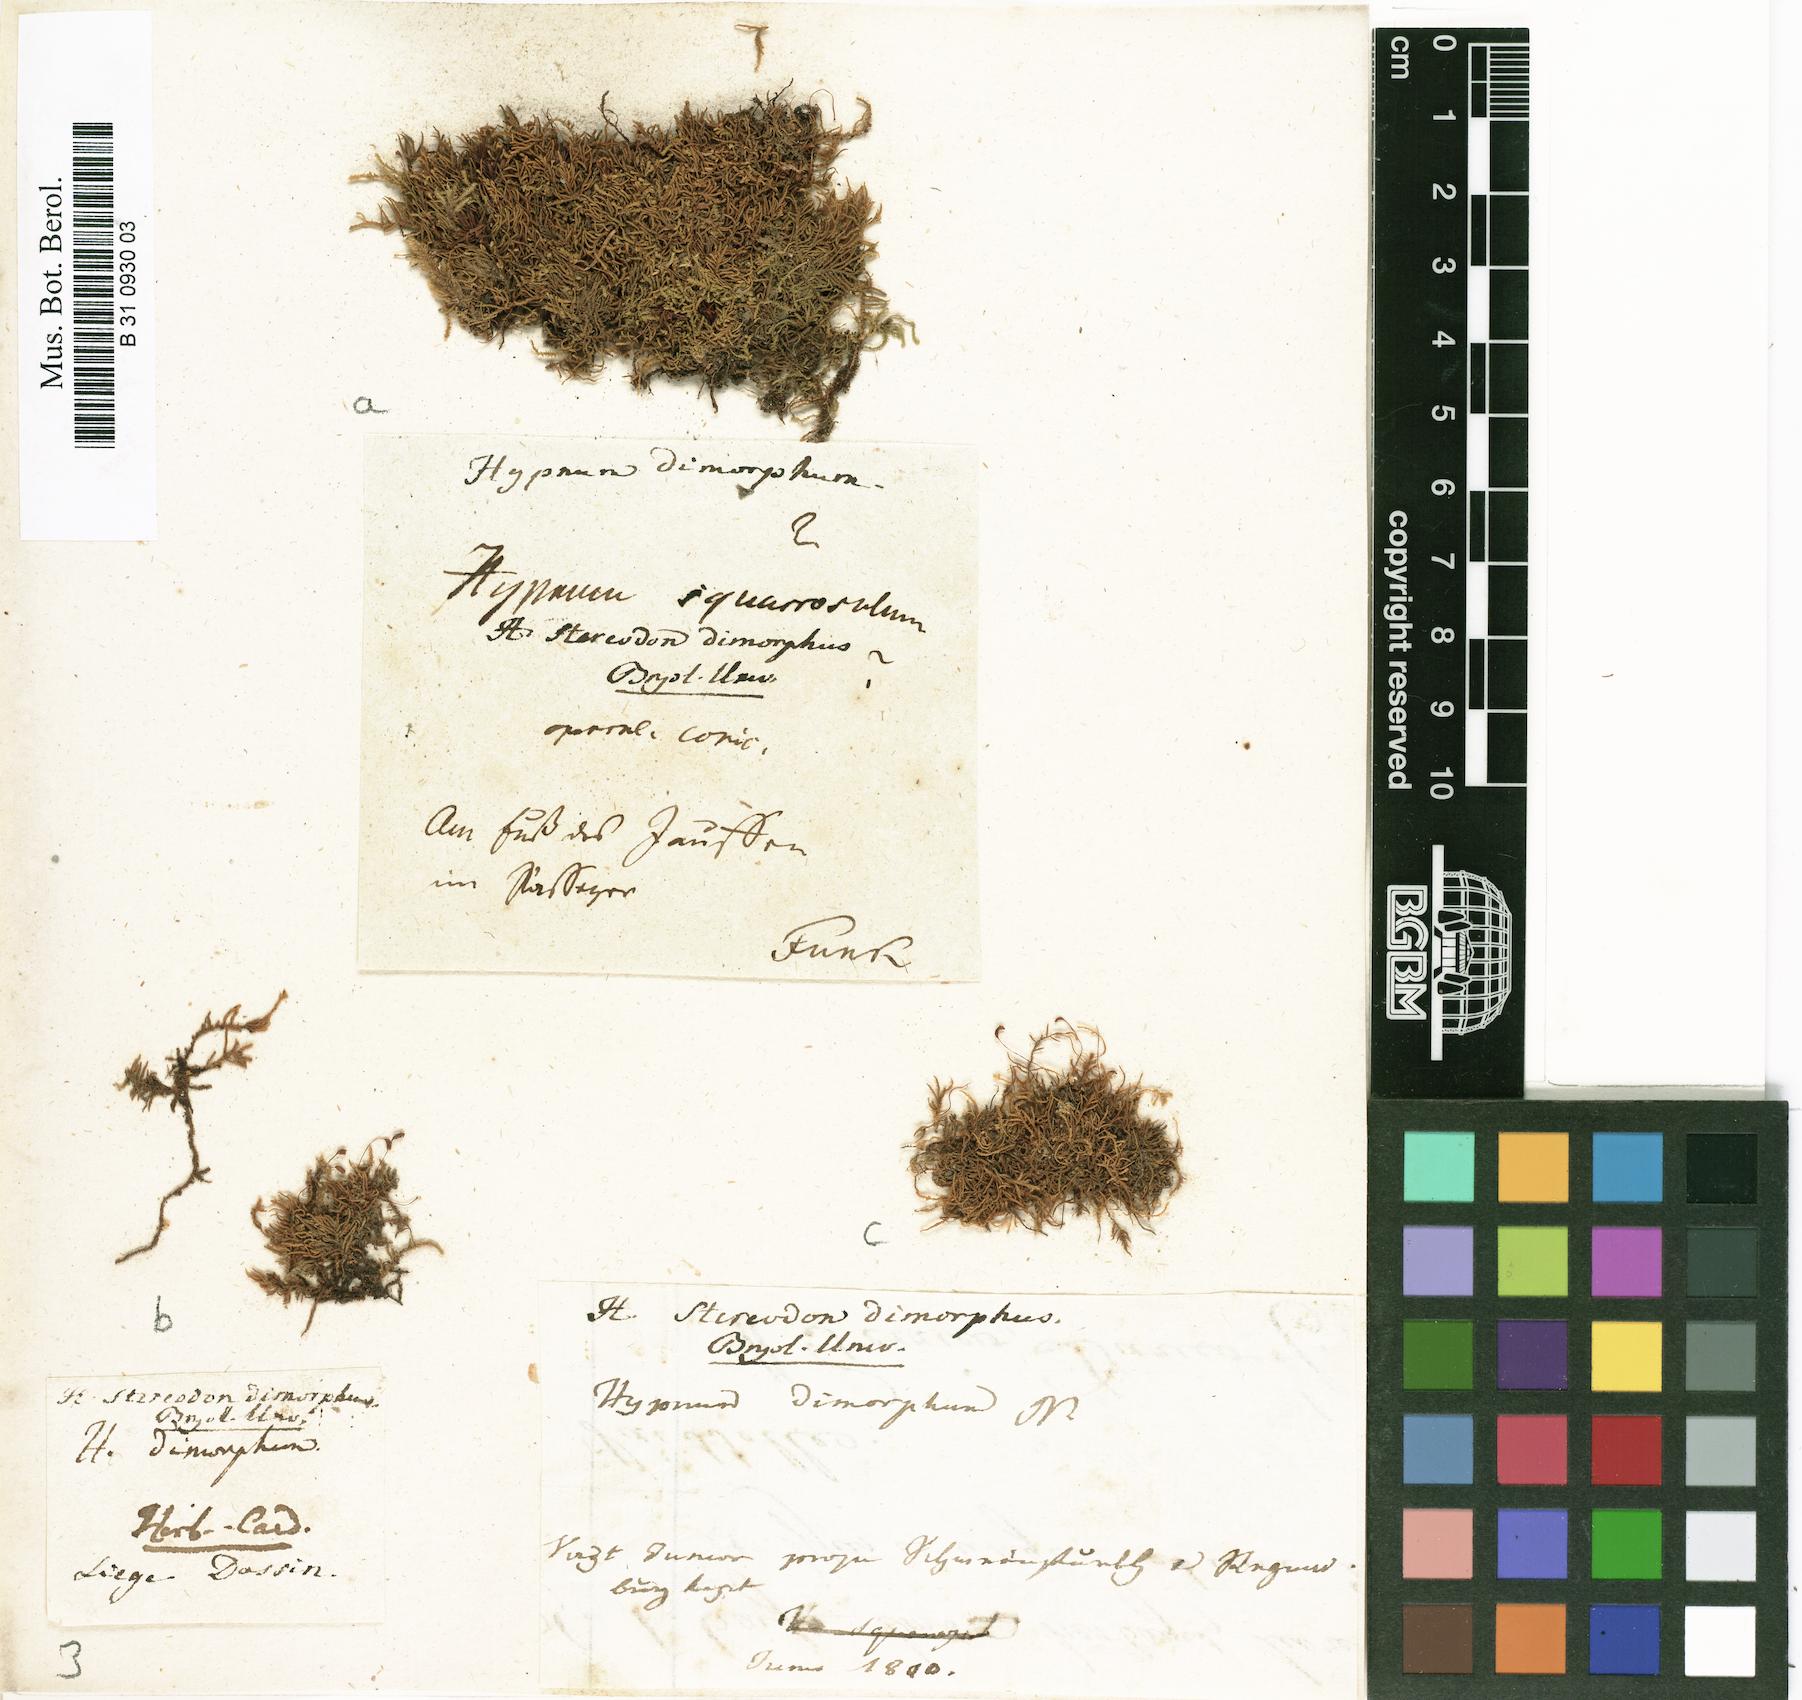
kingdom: Plantae
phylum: Bryophyta
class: Bryopsida
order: Hypnales
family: Heterocladiellaceae
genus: Heterocladiella
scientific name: Heterocladiella dimorpha
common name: Dimorphous tamarisk-moss
